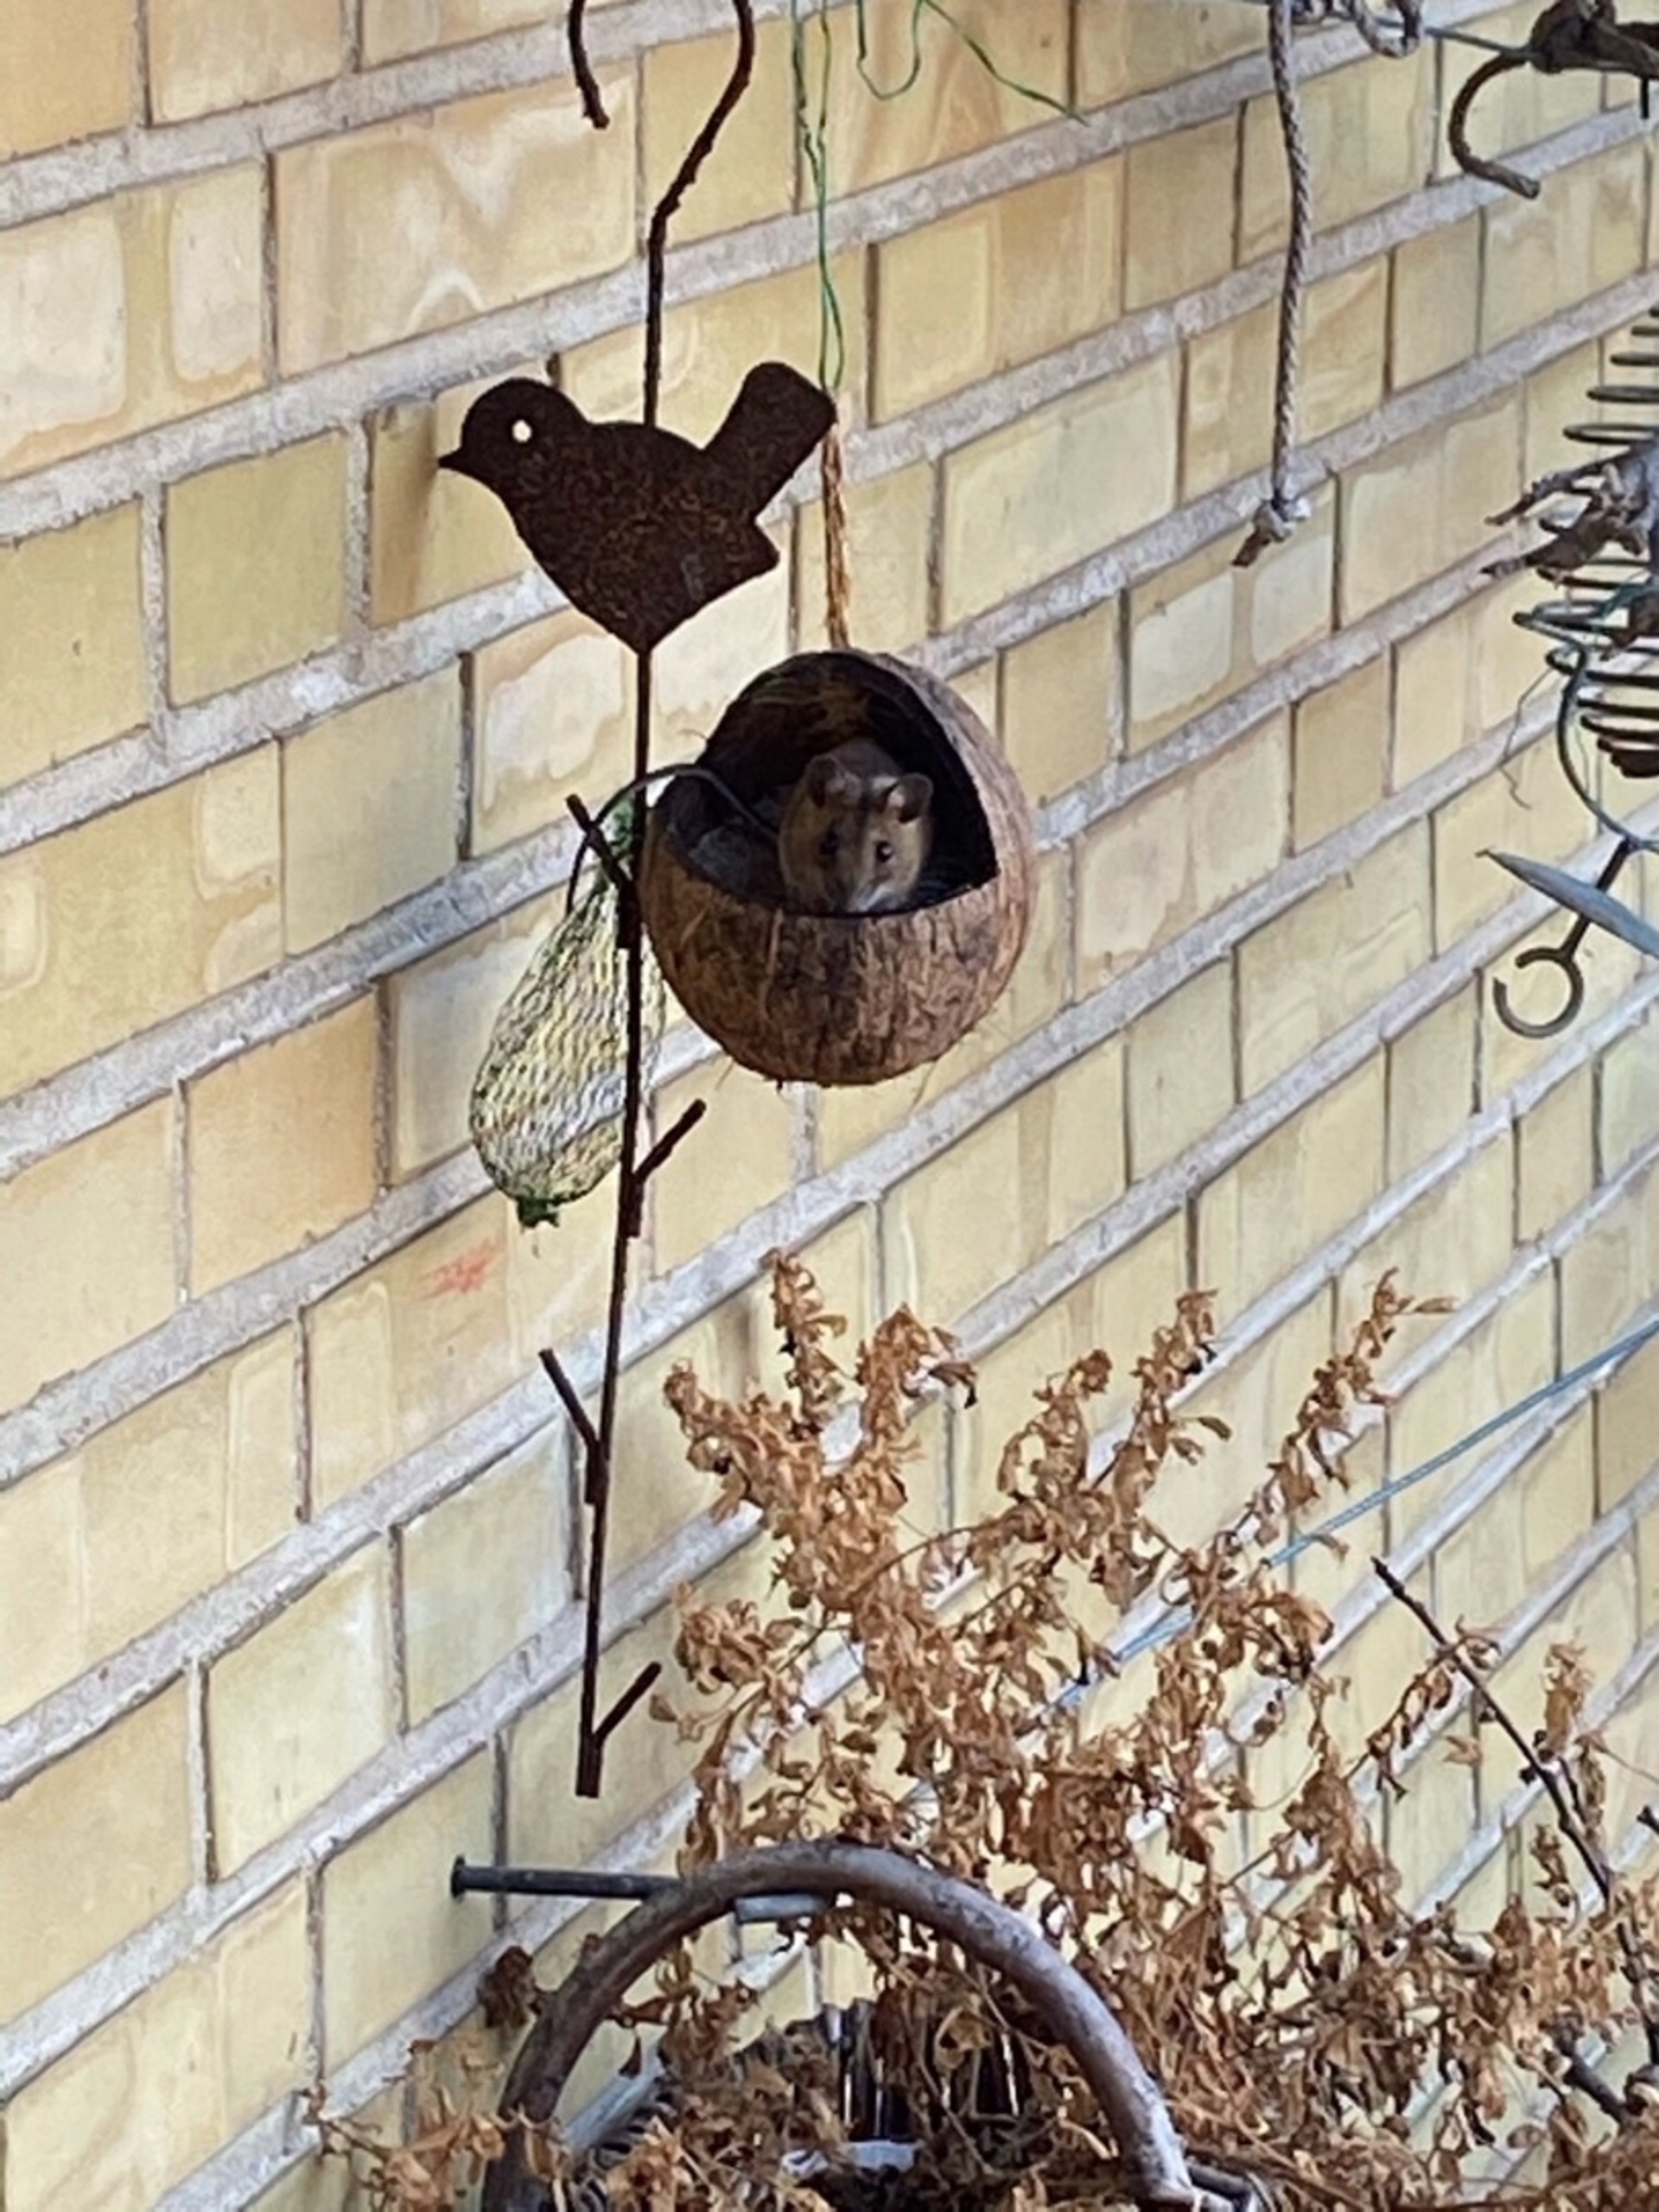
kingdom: Animalia
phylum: Chordata
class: Mammalia
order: Rodentia
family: Muridae
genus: Apodemus
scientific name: Apodemus flavicollis
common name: Halsbåndmus
